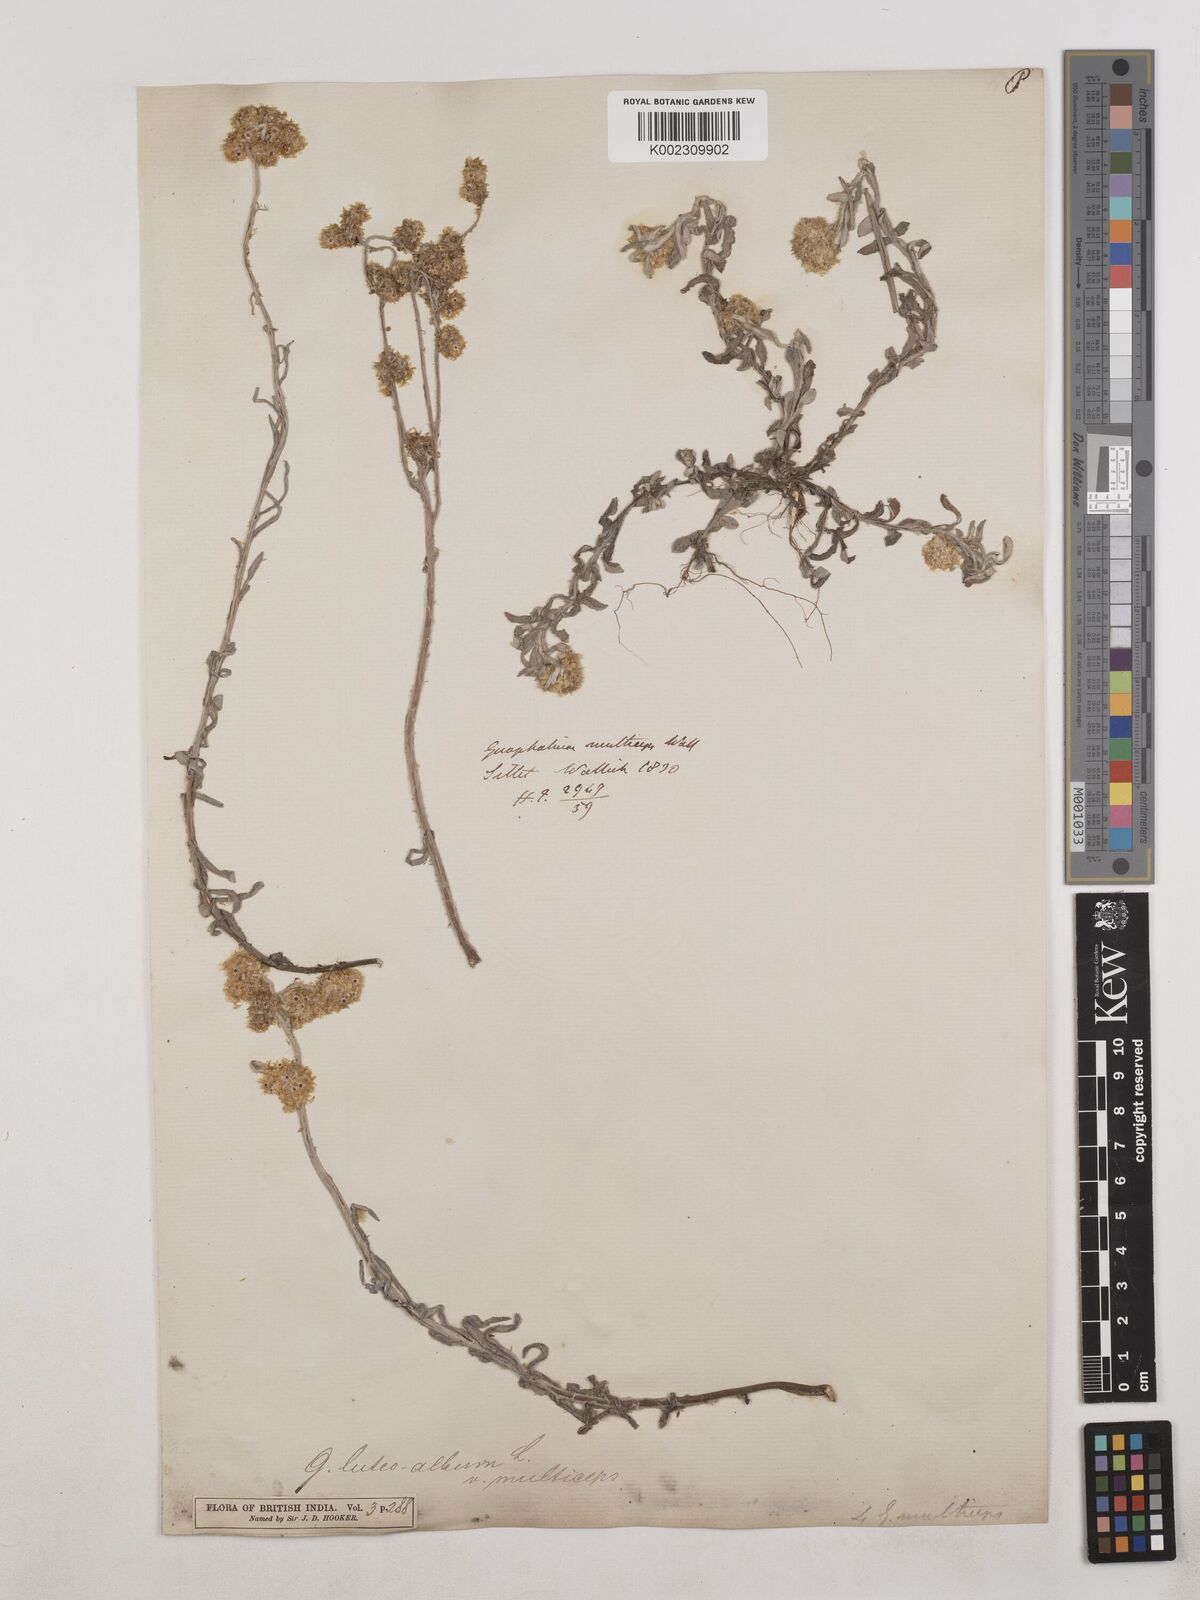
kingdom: Plantae
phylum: Tracheophyta
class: Magnoliopsida
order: Asterales
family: Asteraceae
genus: Pseudognaphalium
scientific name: Pseudognaphalium affine
